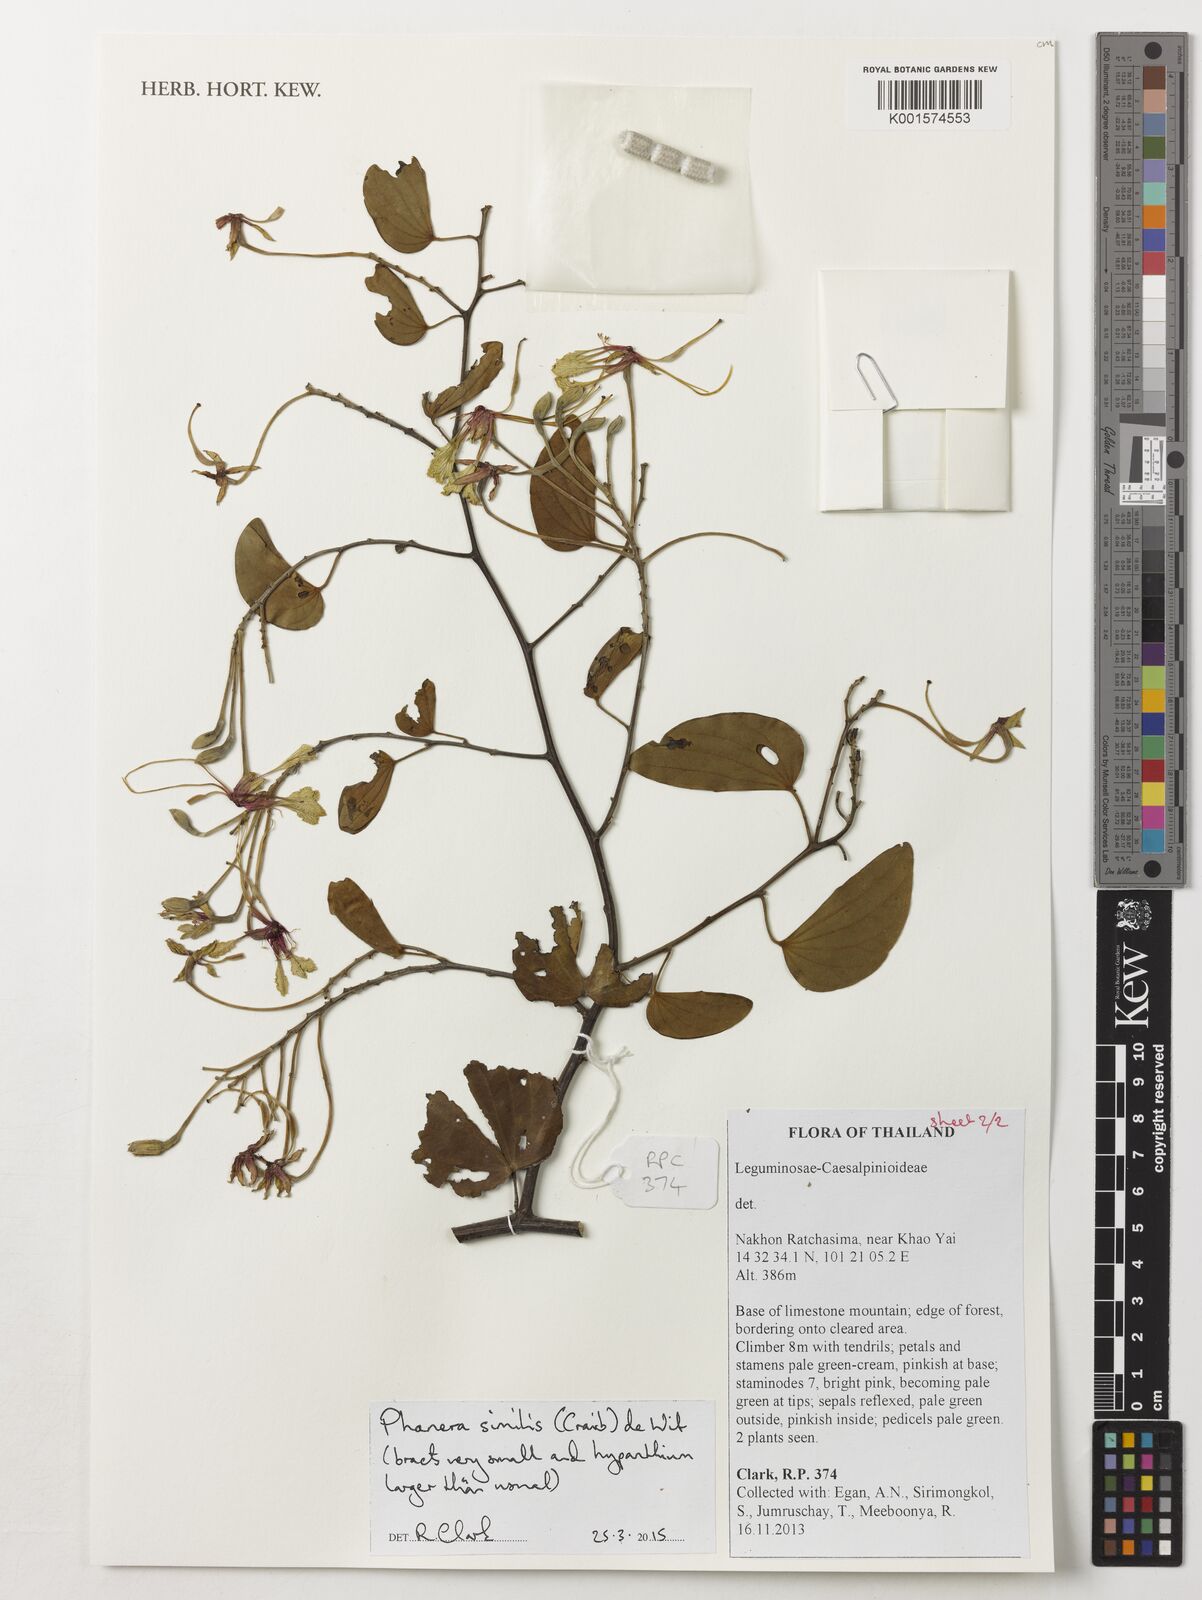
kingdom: Plantae
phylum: Tracheophyta
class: Magnoliopsida
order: Fabales
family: Fabaceae
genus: Phanera
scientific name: Phanera similis
